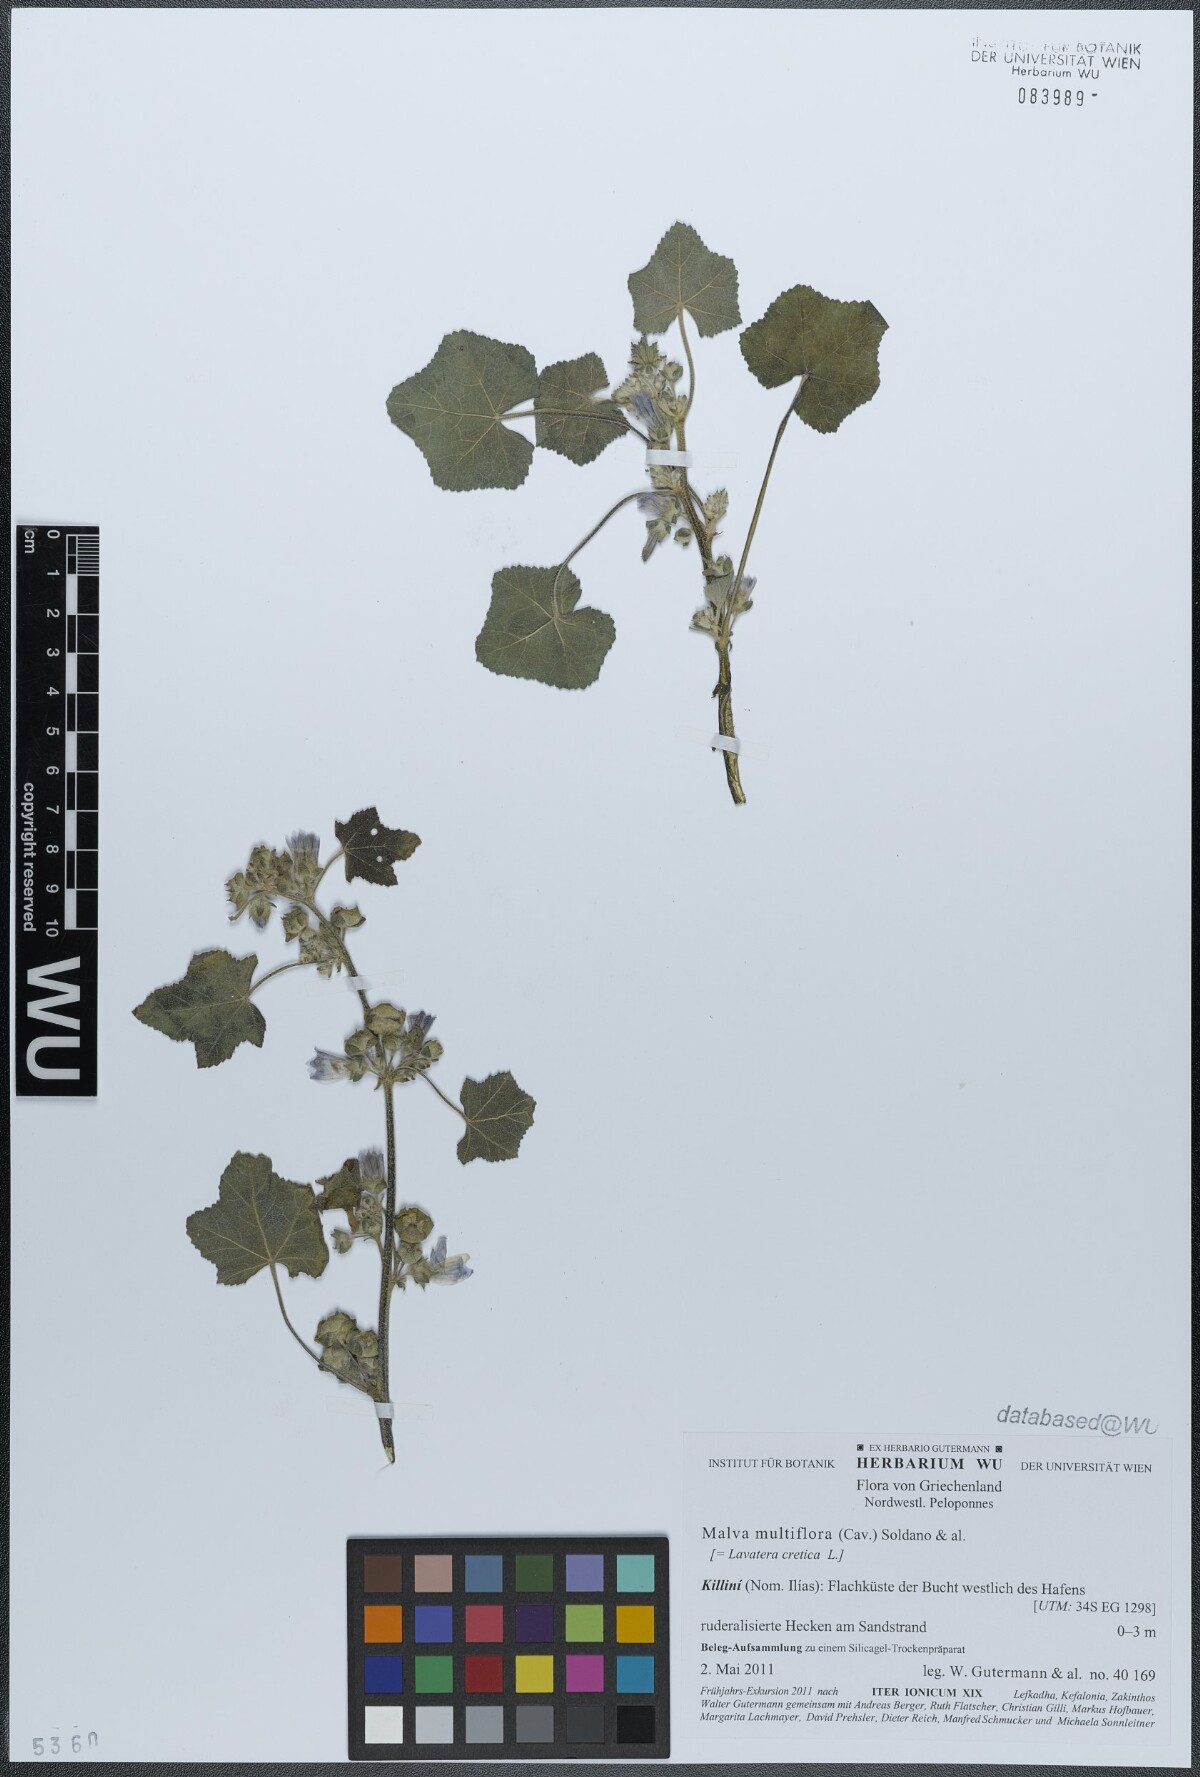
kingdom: Plantae
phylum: Tracheophyta
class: Magnoliopsida
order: Malvales
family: Malvaceae
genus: Malva
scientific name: Malva multiflora
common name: Cheeseweed
